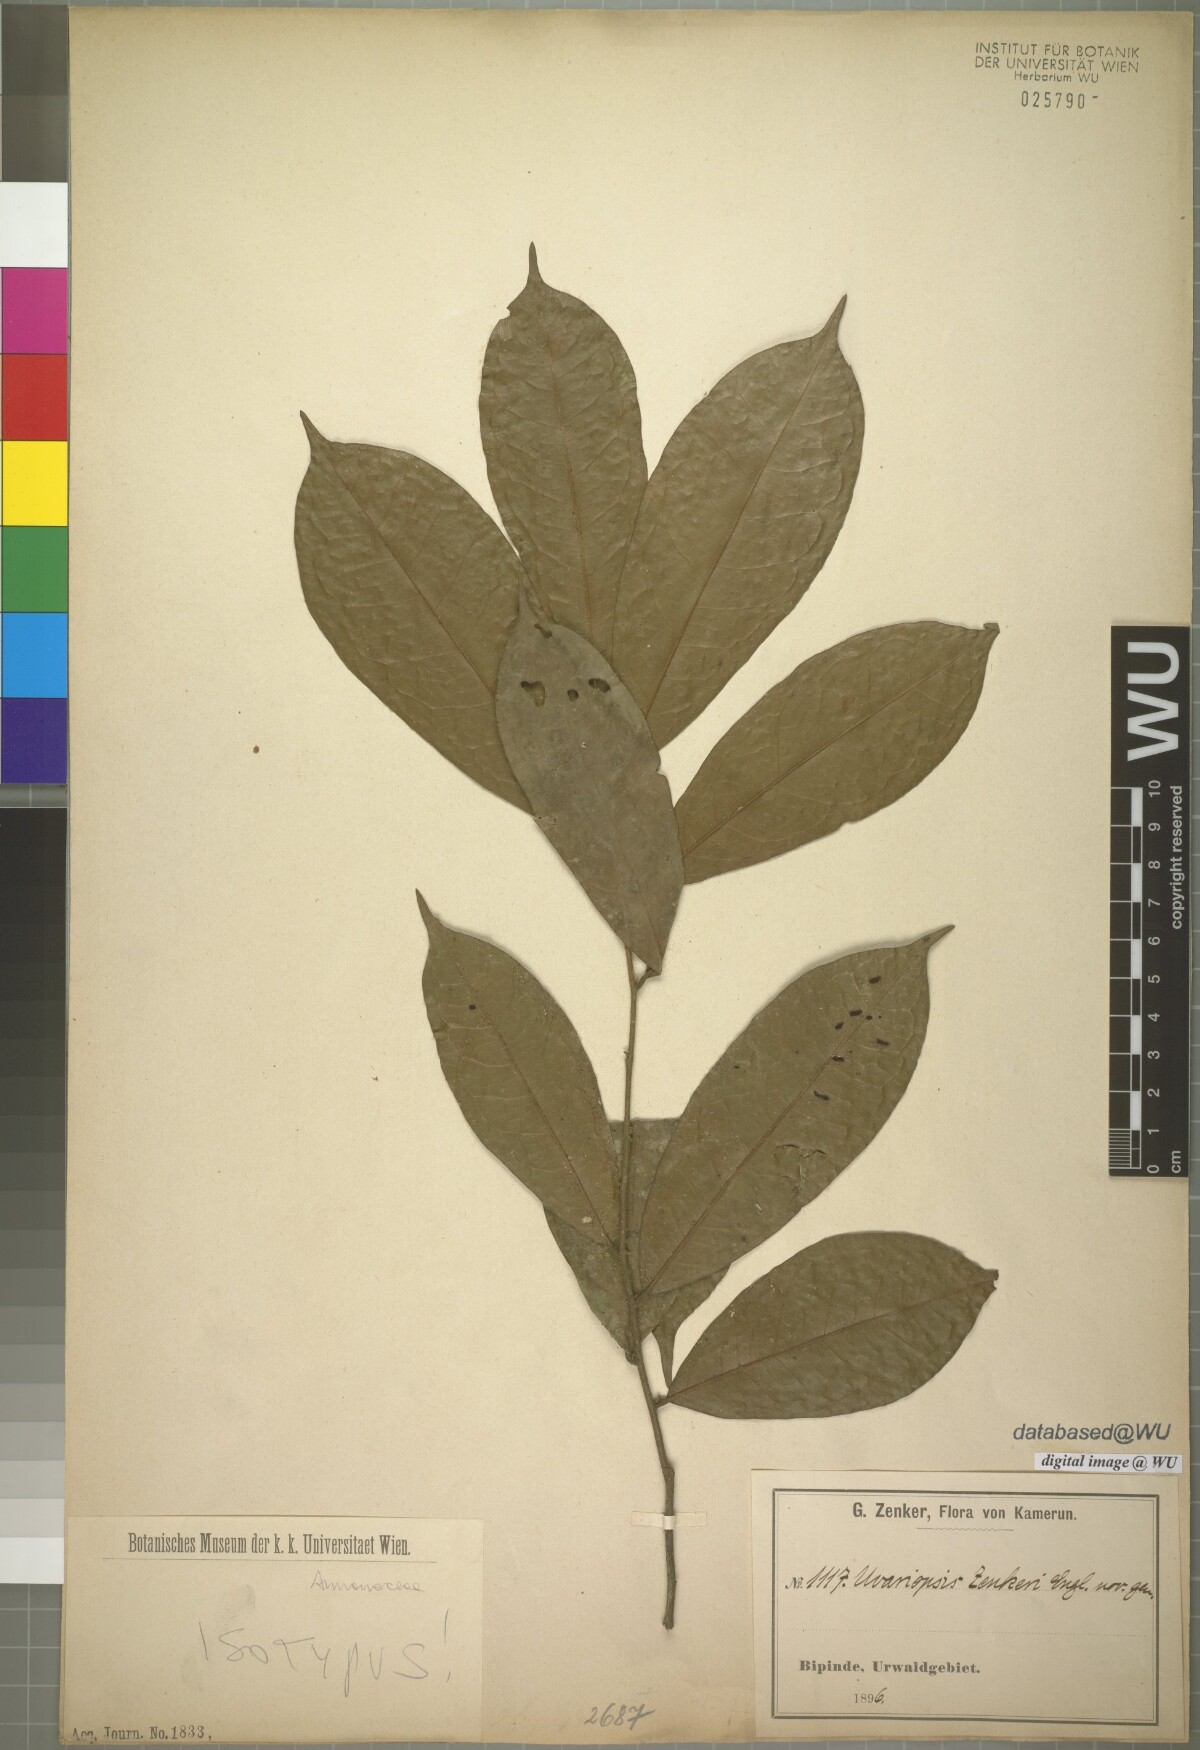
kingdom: Plantae
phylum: Tracheophyta
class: Magnoliopsida
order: Magnoliales
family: Annonaceae
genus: Uvariopsis
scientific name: Uvariopsis zenkeri
